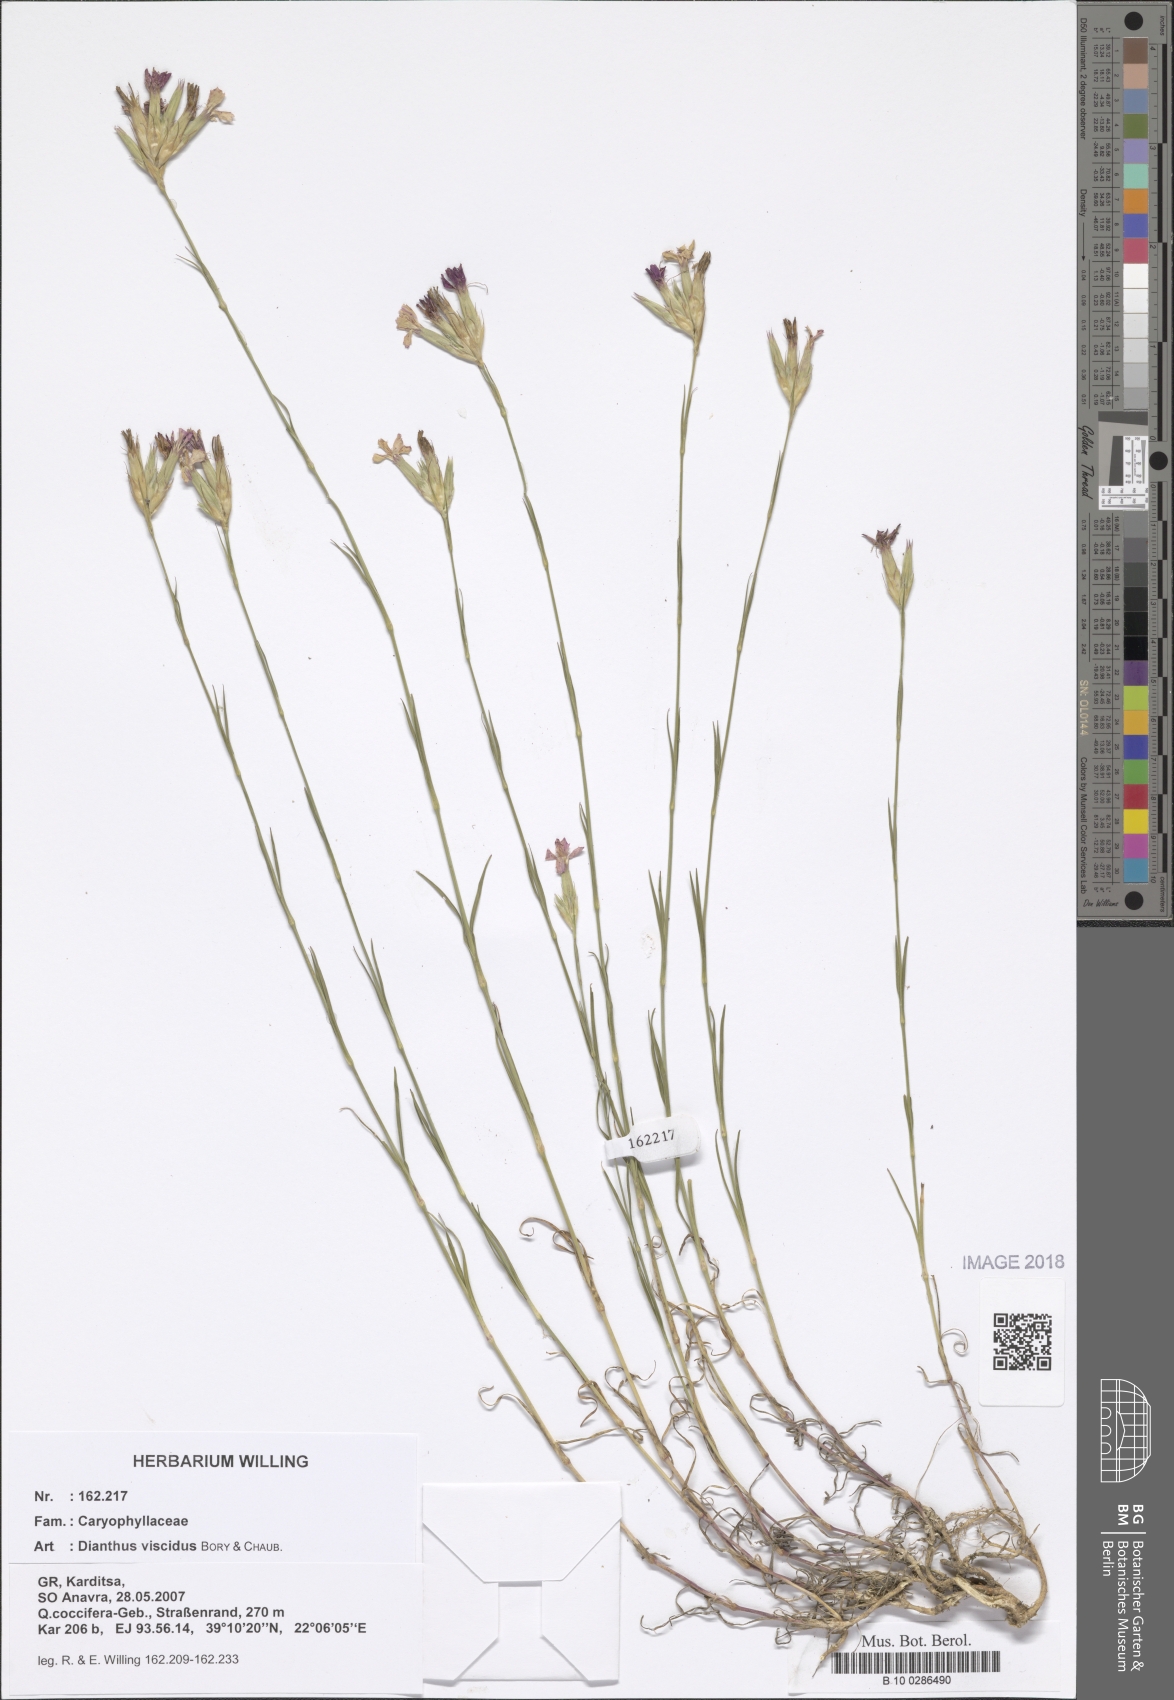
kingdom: Plantae
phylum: Tracheophyta
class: Magnoliopsida
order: Caryophyllales
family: Caryophyllaceae
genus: Dianthus
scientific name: Dianthus viscidus
